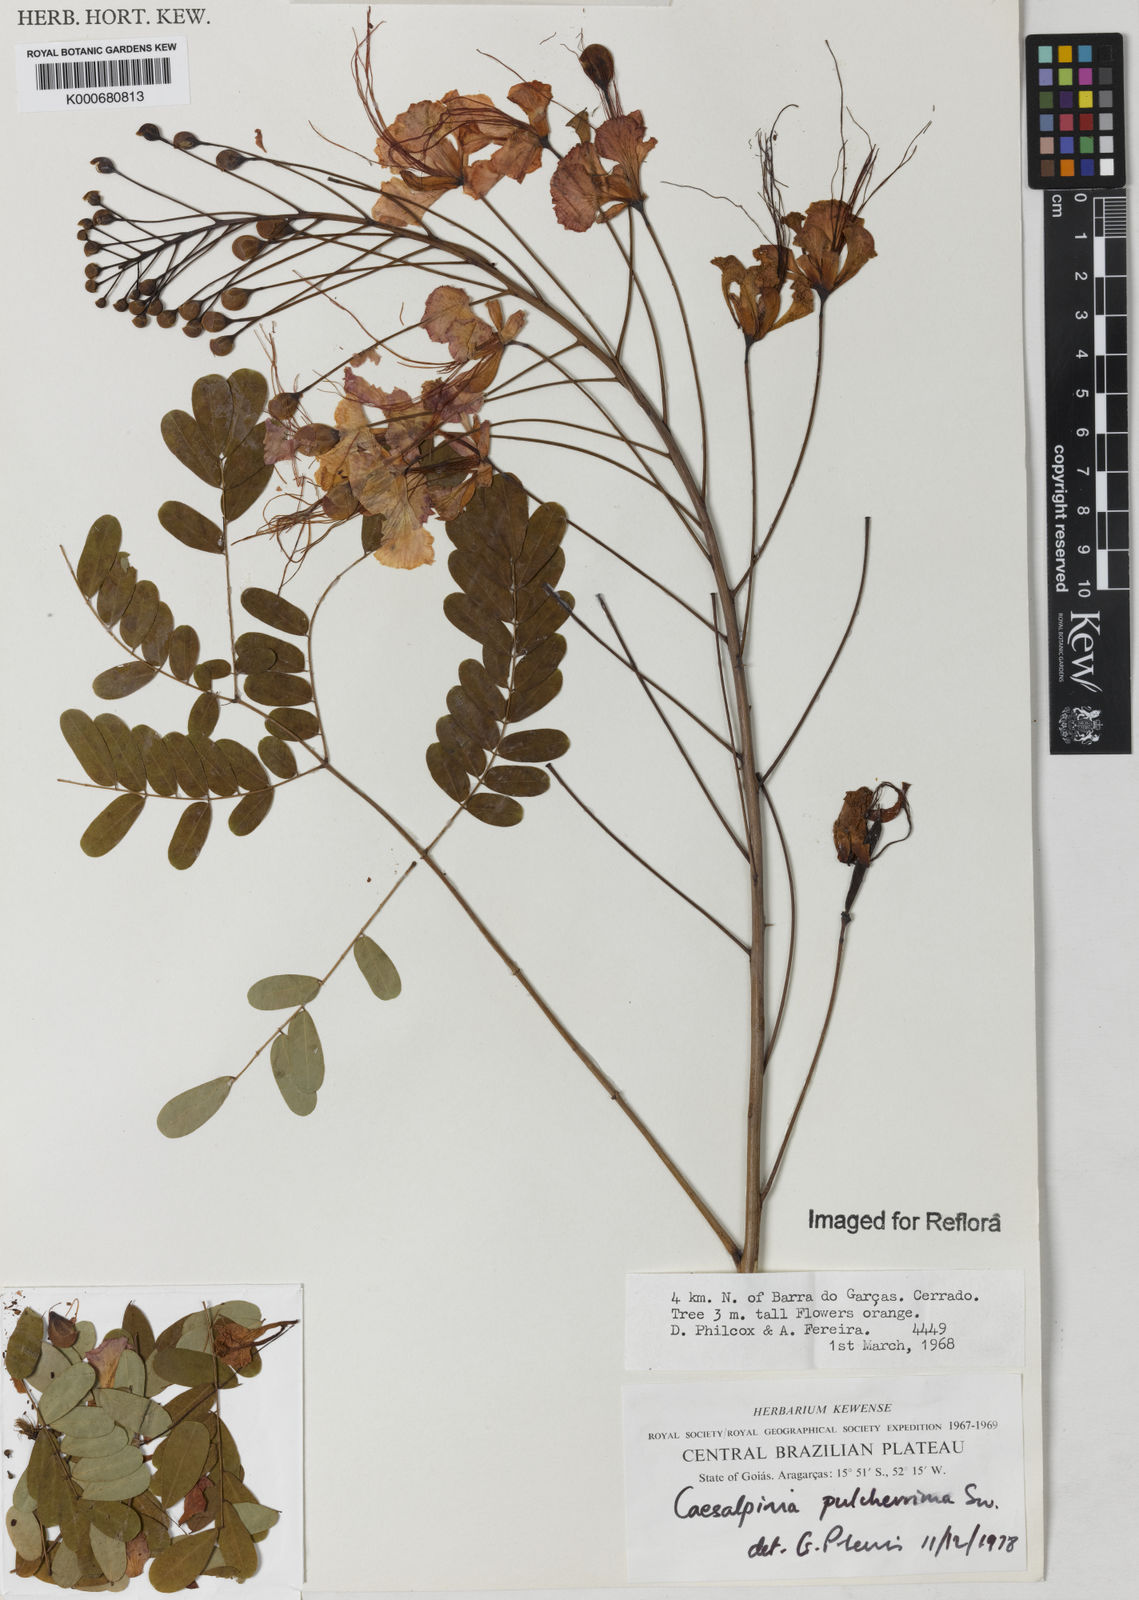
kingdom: Plantae
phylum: Tracheophyta
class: Magnoliopsida
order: Fabales
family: Fabaceae
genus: Caesalpinia
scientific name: Caesalpinia pulcherrima
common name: Pride-of-barbados
